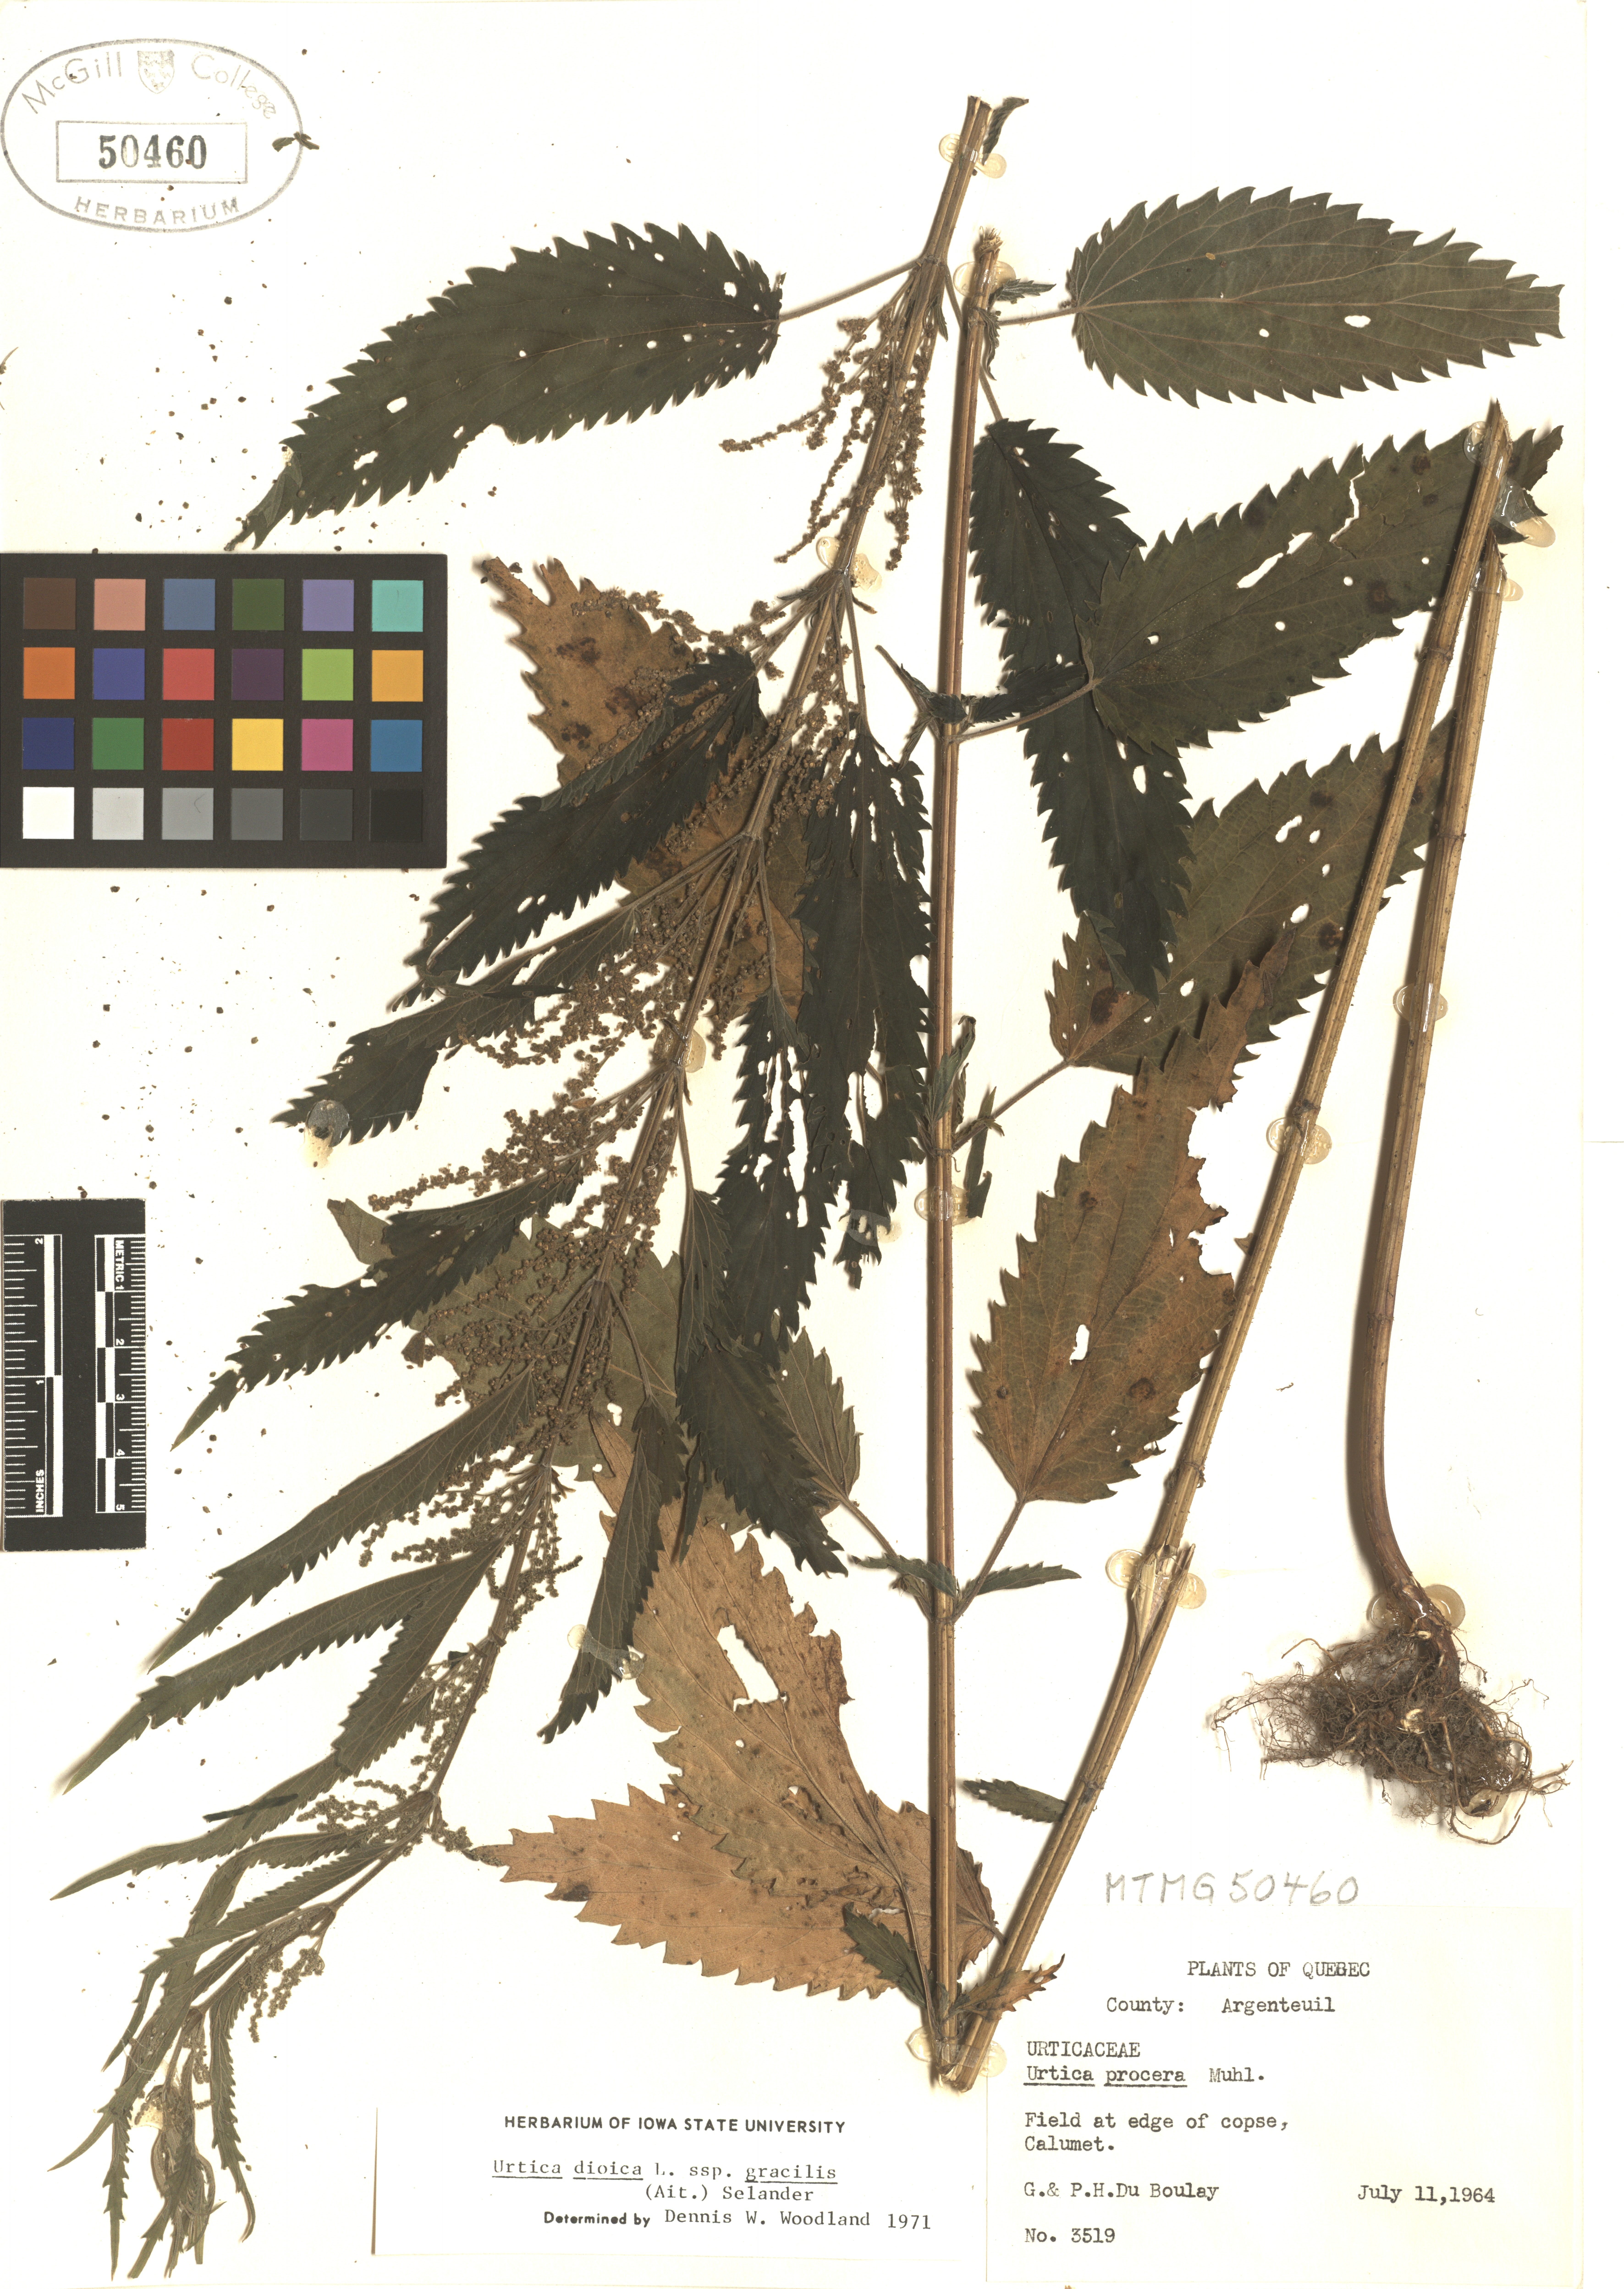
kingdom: Plantae
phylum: Tracheophyta
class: Magnoliopsida
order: Rosales
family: Urticaceae
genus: Urtica
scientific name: Urtica gracilis
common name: Slender stinging nettle
